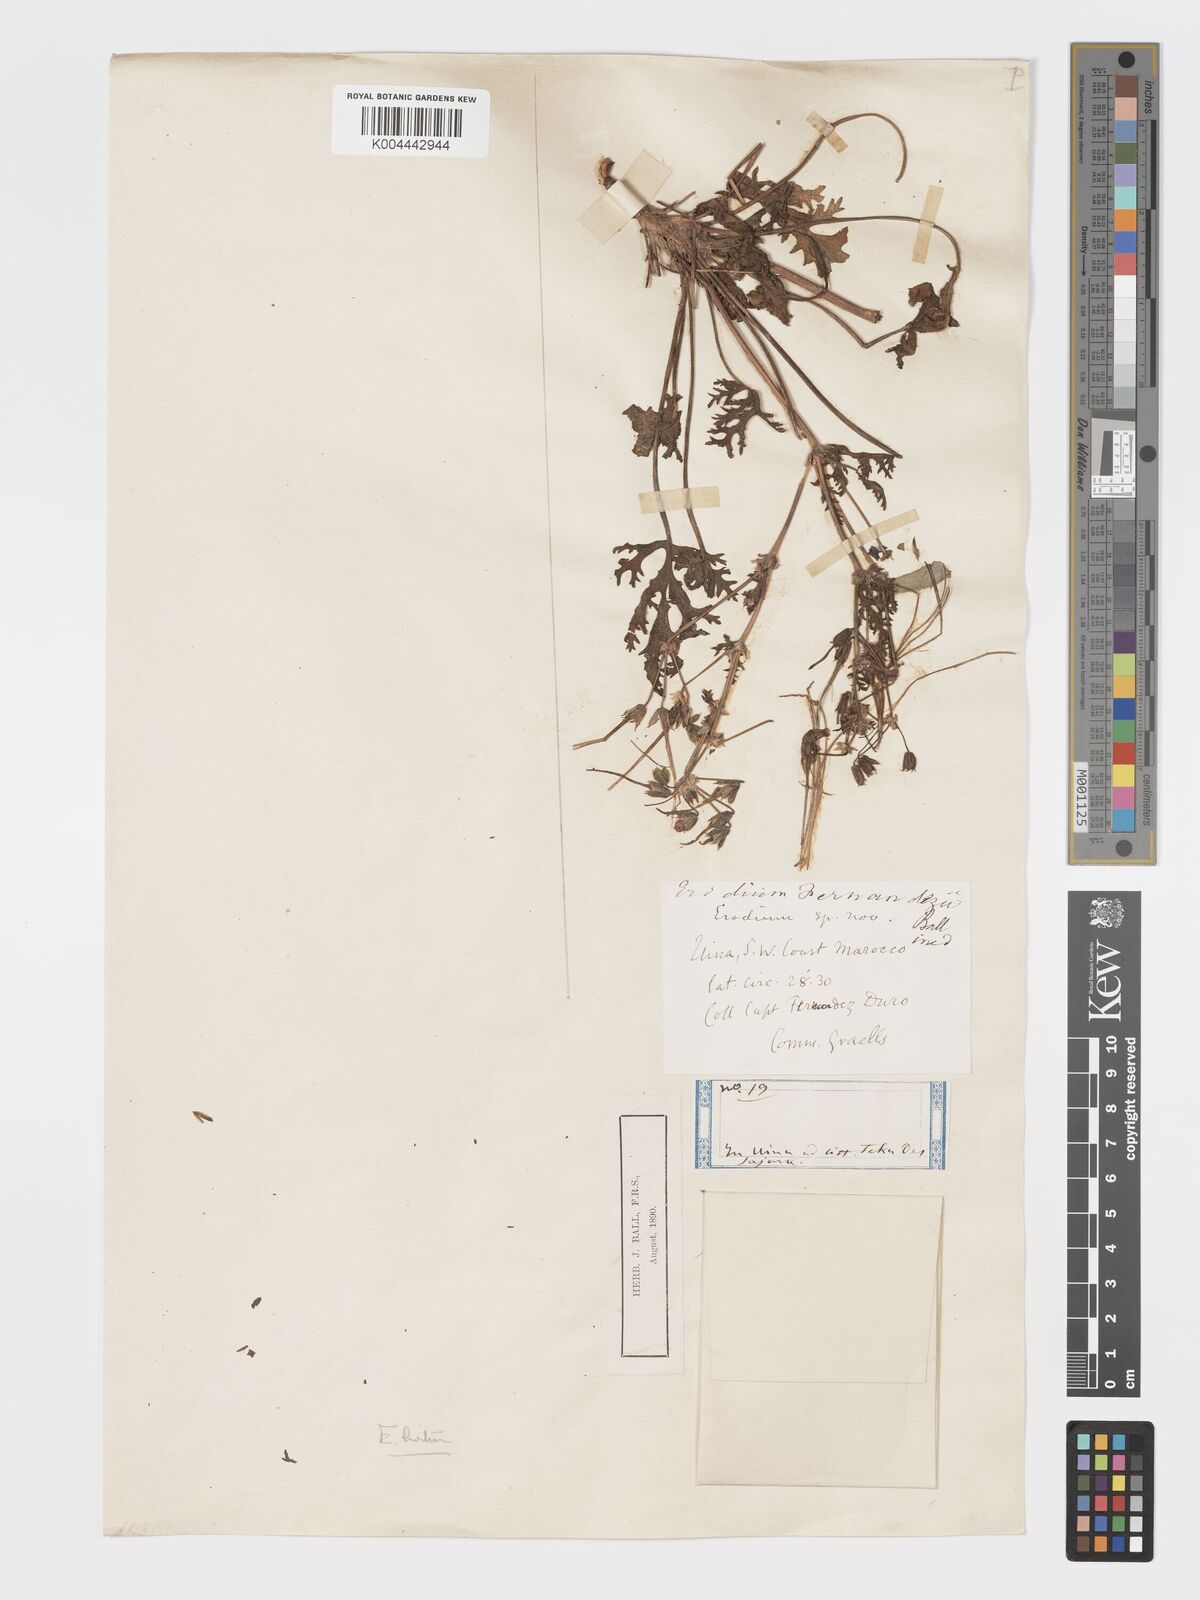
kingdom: Plantae
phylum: Tracheophyta
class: Magnoliopsida
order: Geraniales
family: Geraniaceae
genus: Erodium
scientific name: Erodium cyrenaicum
